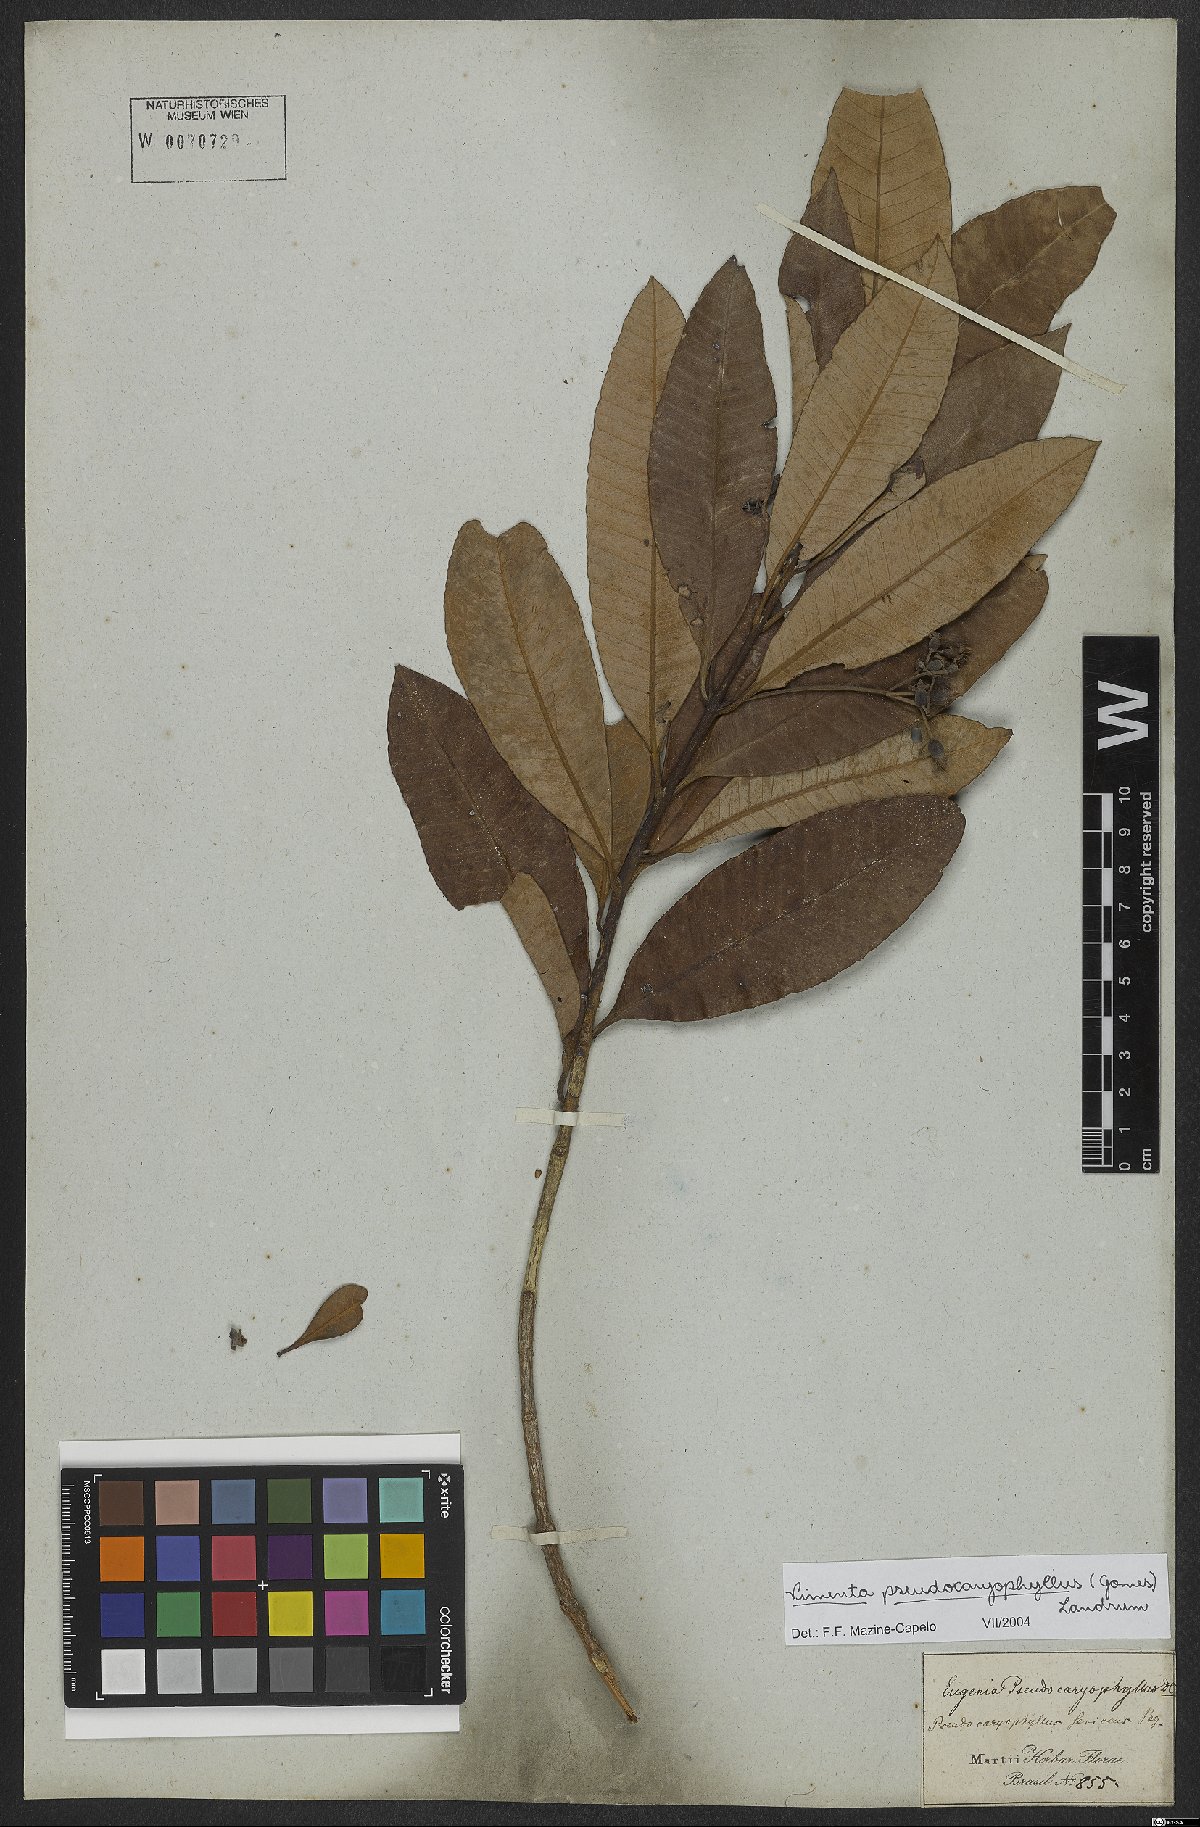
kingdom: Plantae
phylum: Tracheophyta
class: Magnoliopsida
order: Myrtales
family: Myrtaceae
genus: Pimenta
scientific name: Pimenta pseudocaryophyllus
